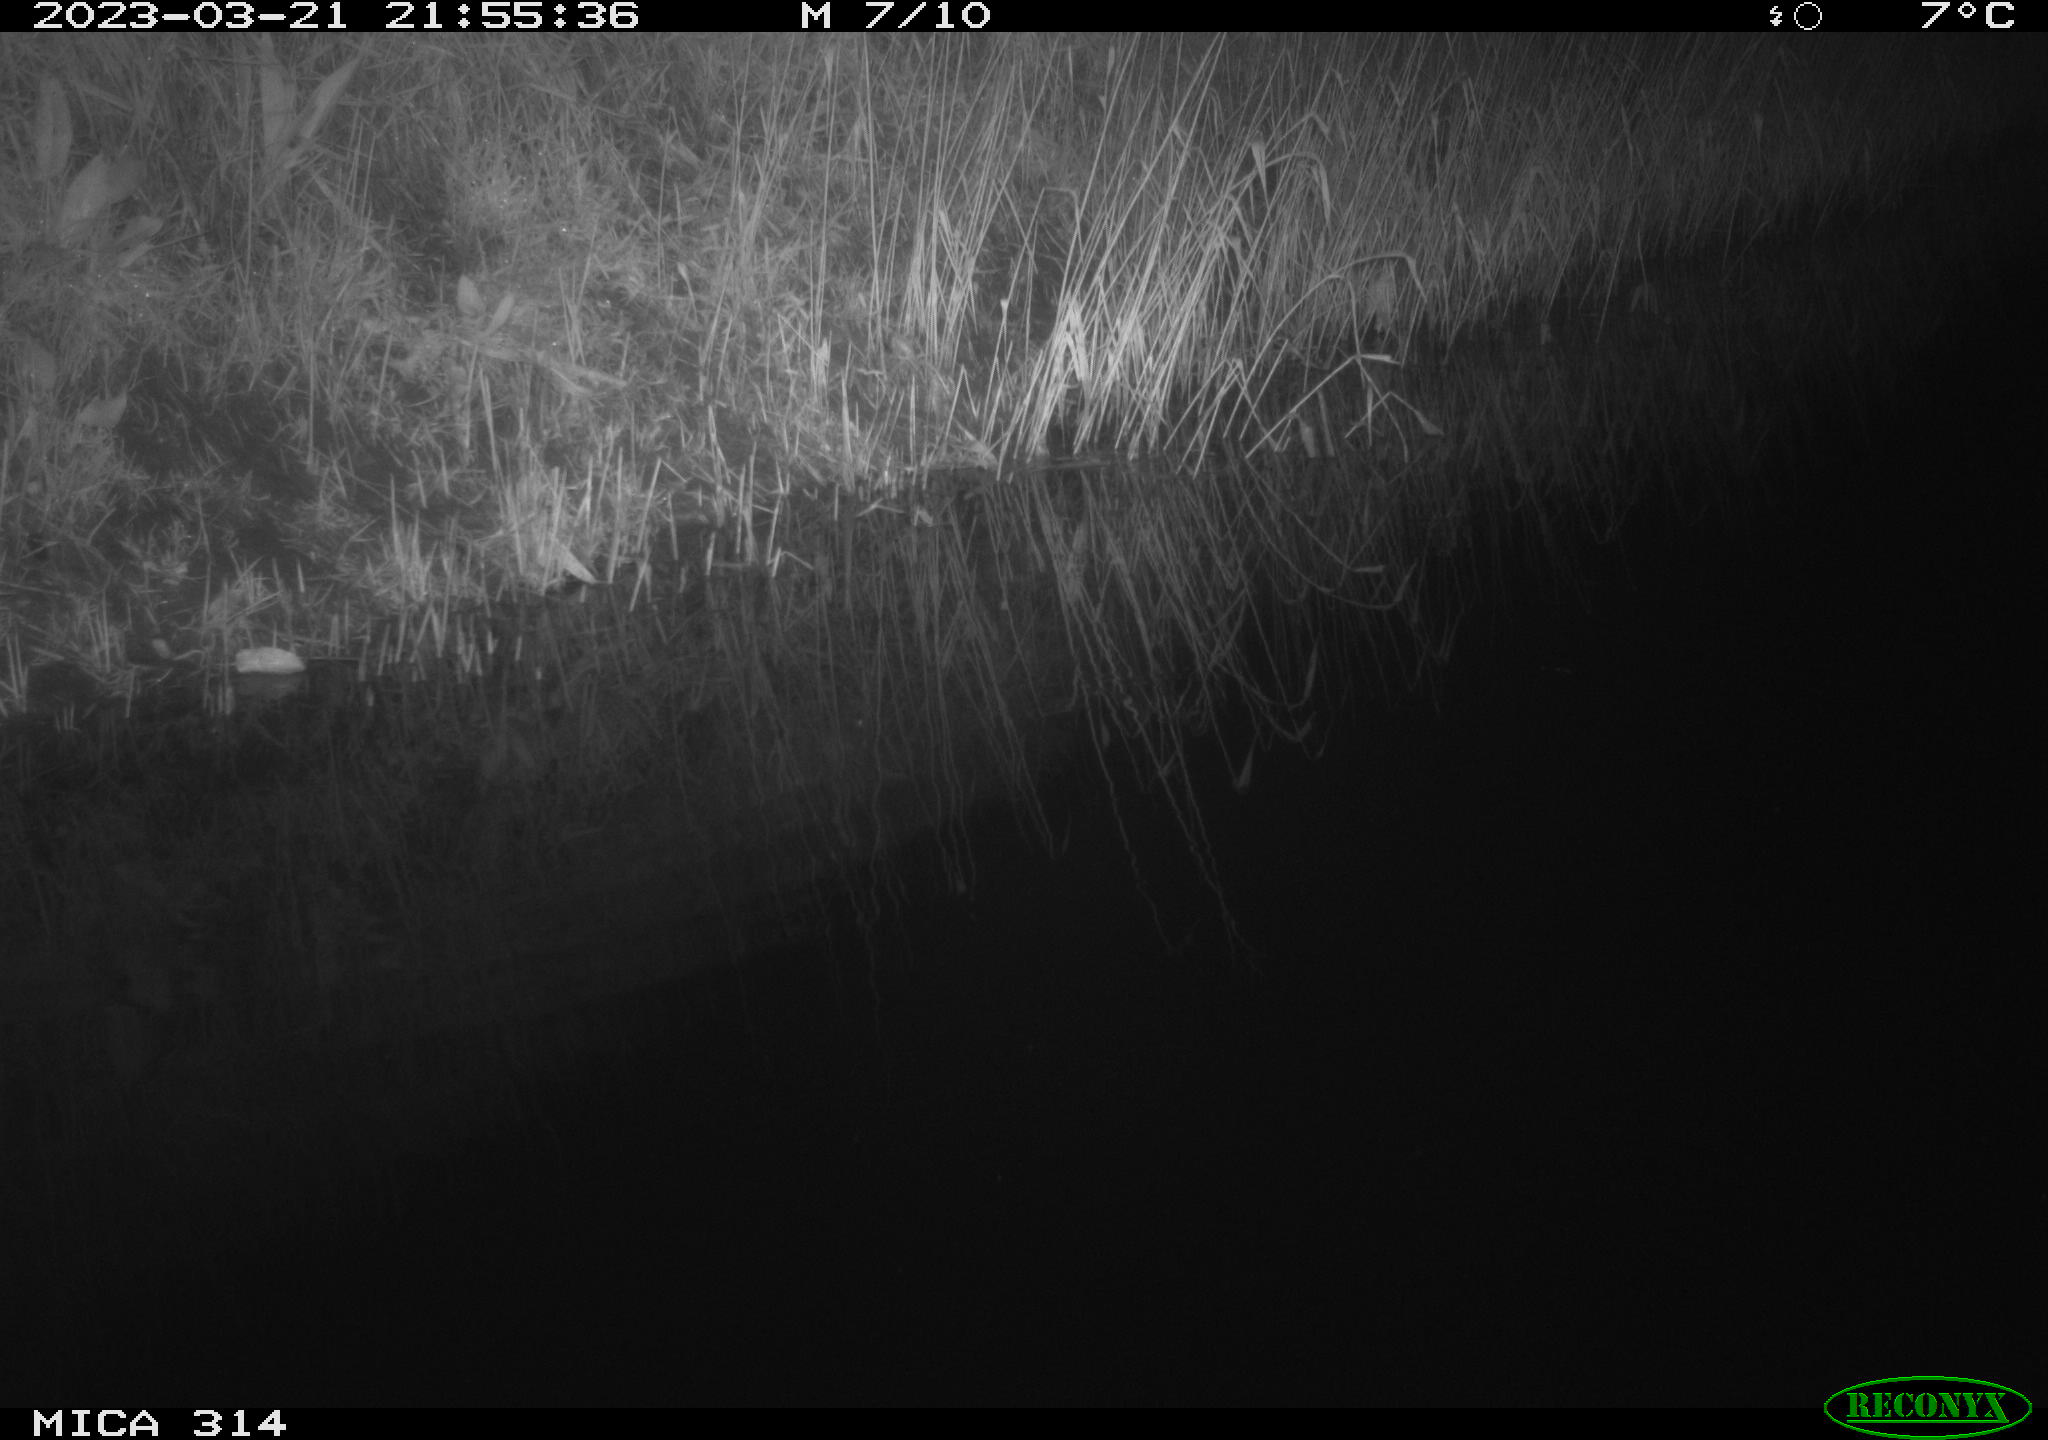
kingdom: Animalia
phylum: Chordata
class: Mammalia
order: Rodentia
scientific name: Rodentia
